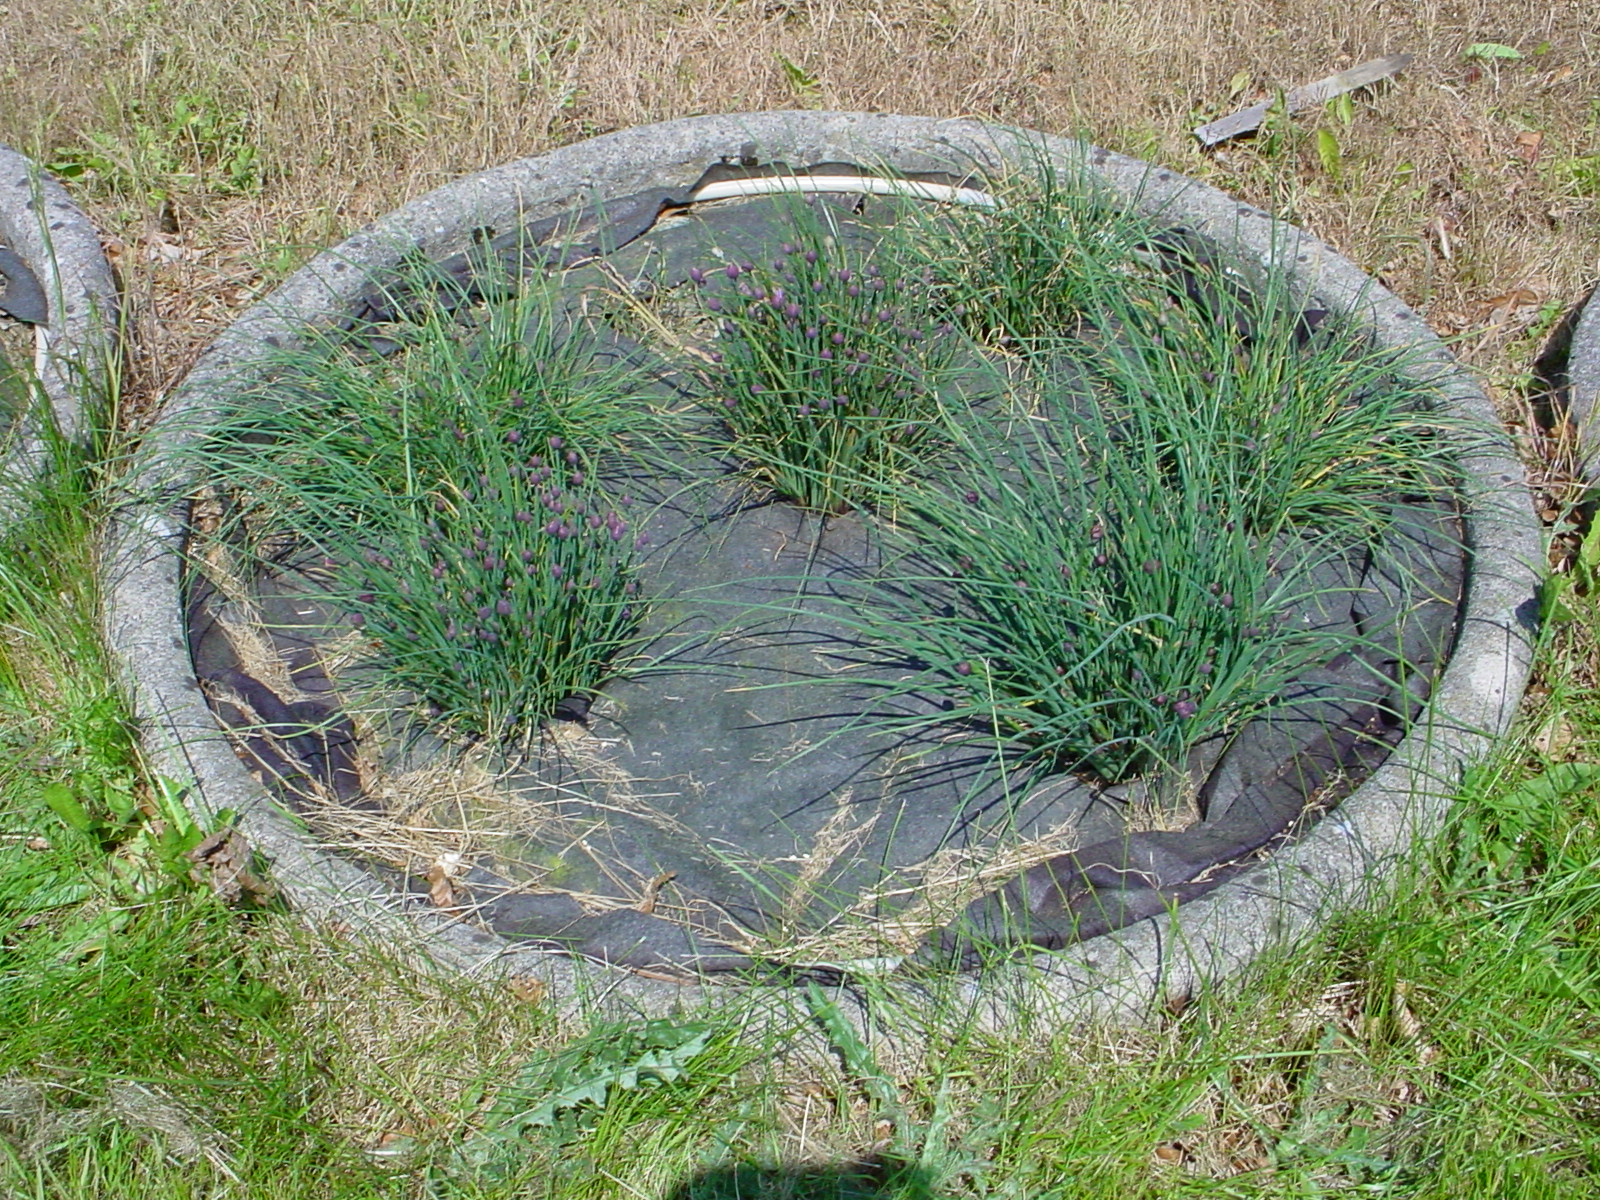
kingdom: Plantae
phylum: Tracheophyta
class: Liliopsida
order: Asparagales
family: Amaryllidaceae
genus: Allium
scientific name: Allium schoenoprasum
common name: Chives
